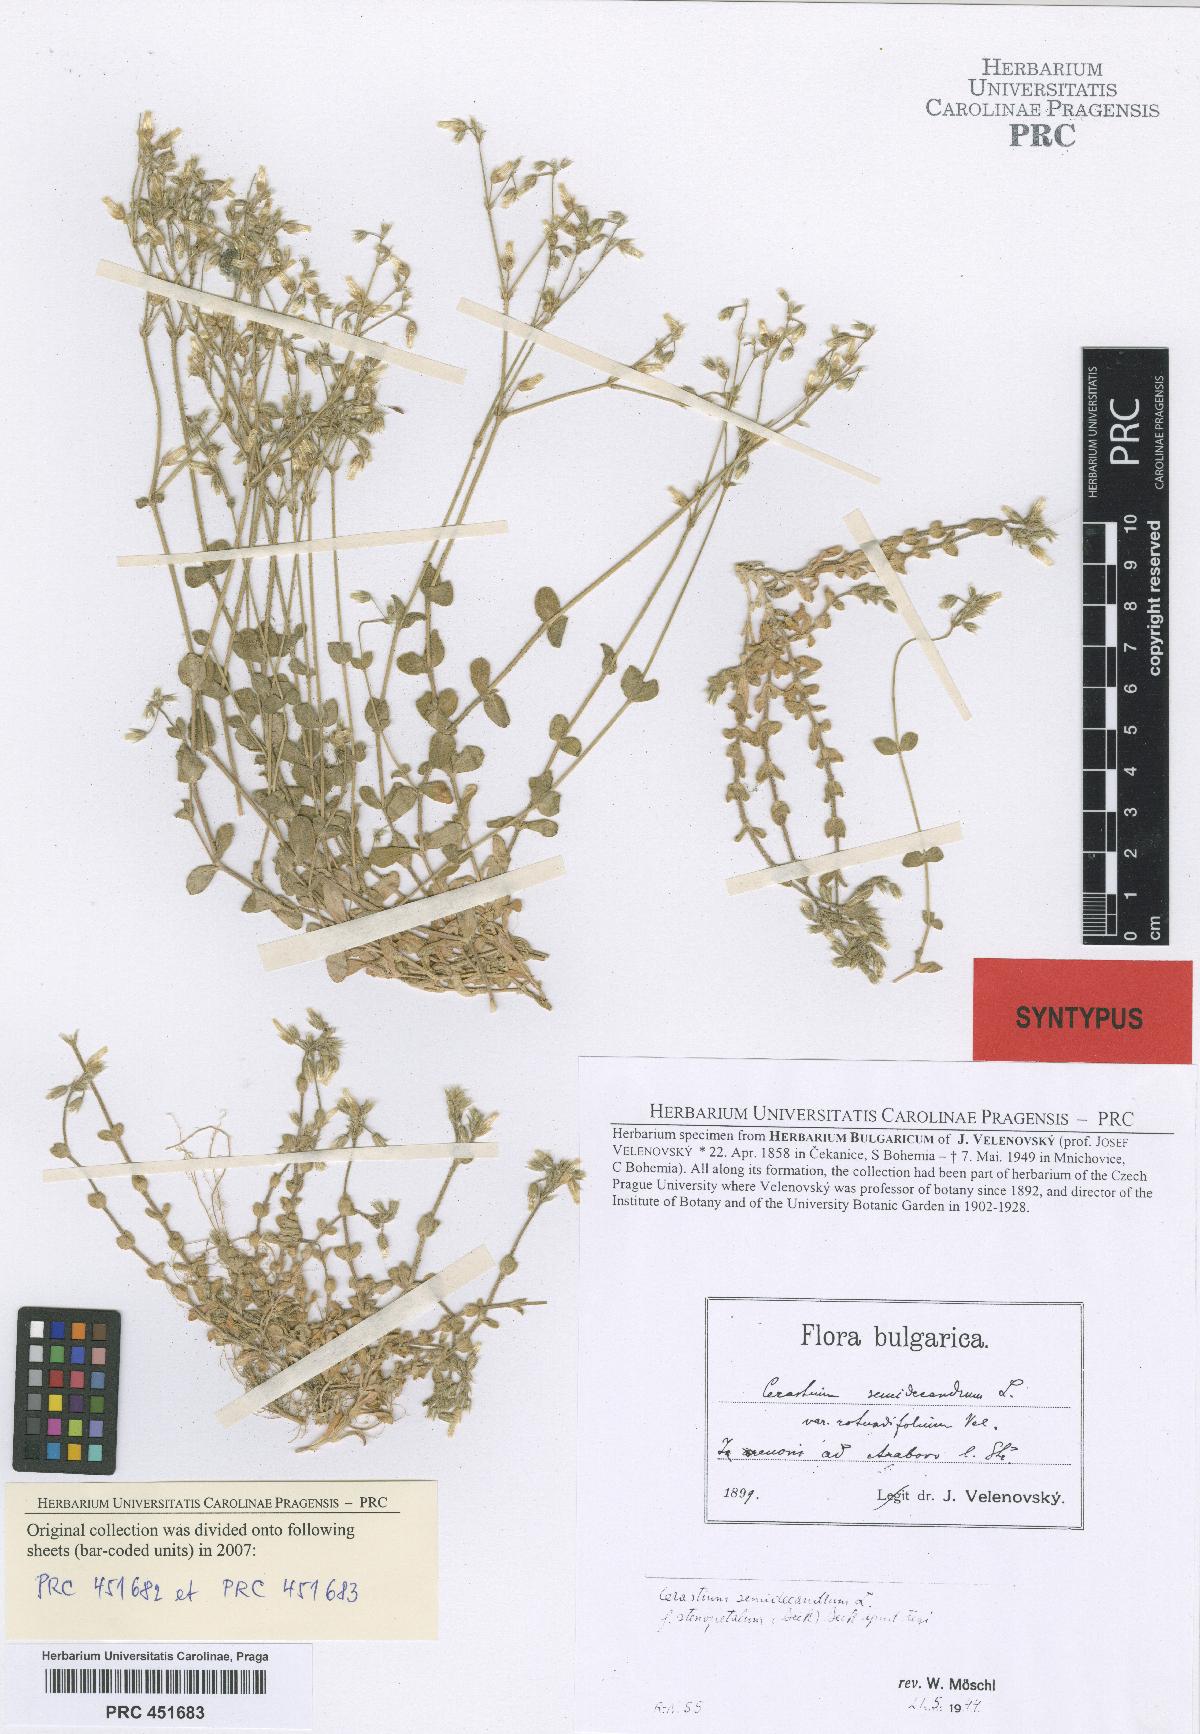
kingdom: Plantae
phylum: Tracheophyta
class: Magnoliopsida
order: Caryophyllales
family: Caryophyllaceae
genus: Cerastium
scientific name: Cerastium semidecandrum
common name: Little mouse-ear
